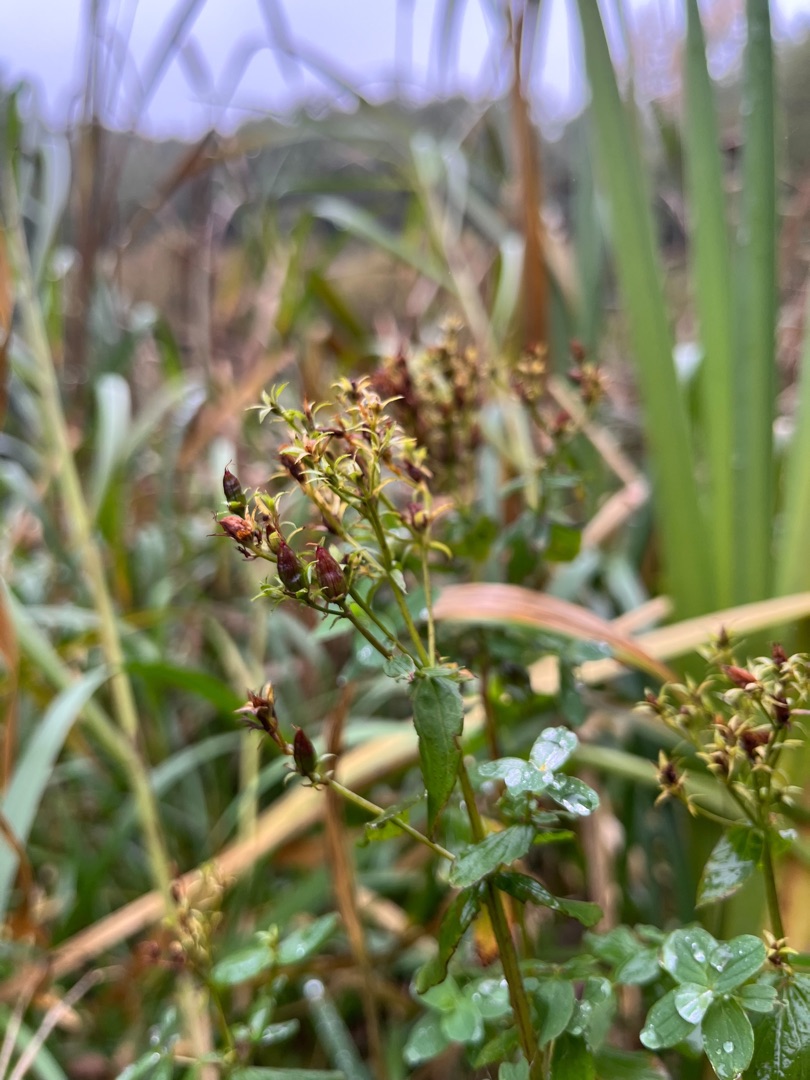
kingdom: Plantae
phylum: Tracheophyta
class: Magnoliopsida
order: Malpighiales
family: Hypericaceae
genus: Hypericum
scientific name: Hypericum tetrapterum
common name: Vinget perikon
